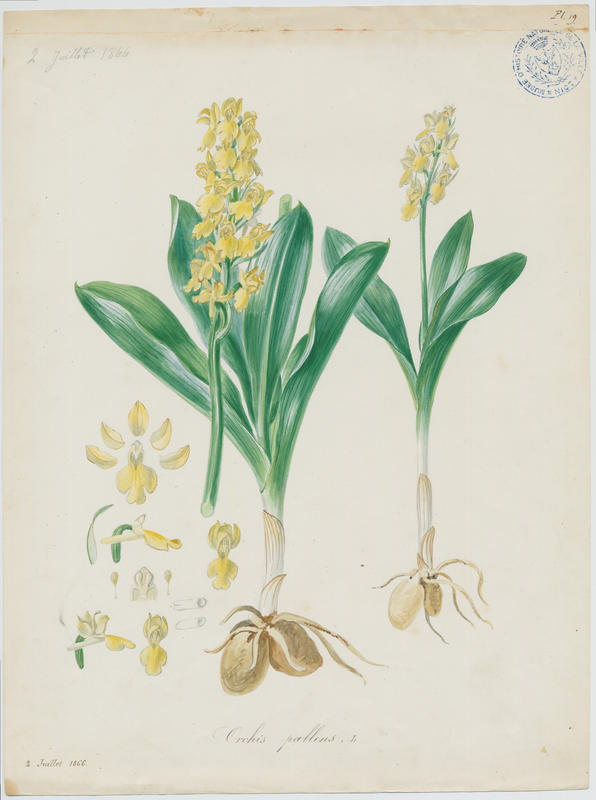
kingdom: Plantae
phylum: Tracheophyta
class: Liliopsida
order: Asparagales
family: Orchidaceae
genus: Orchis
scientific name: Orchis pallens
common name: Pale-flowered orchid
